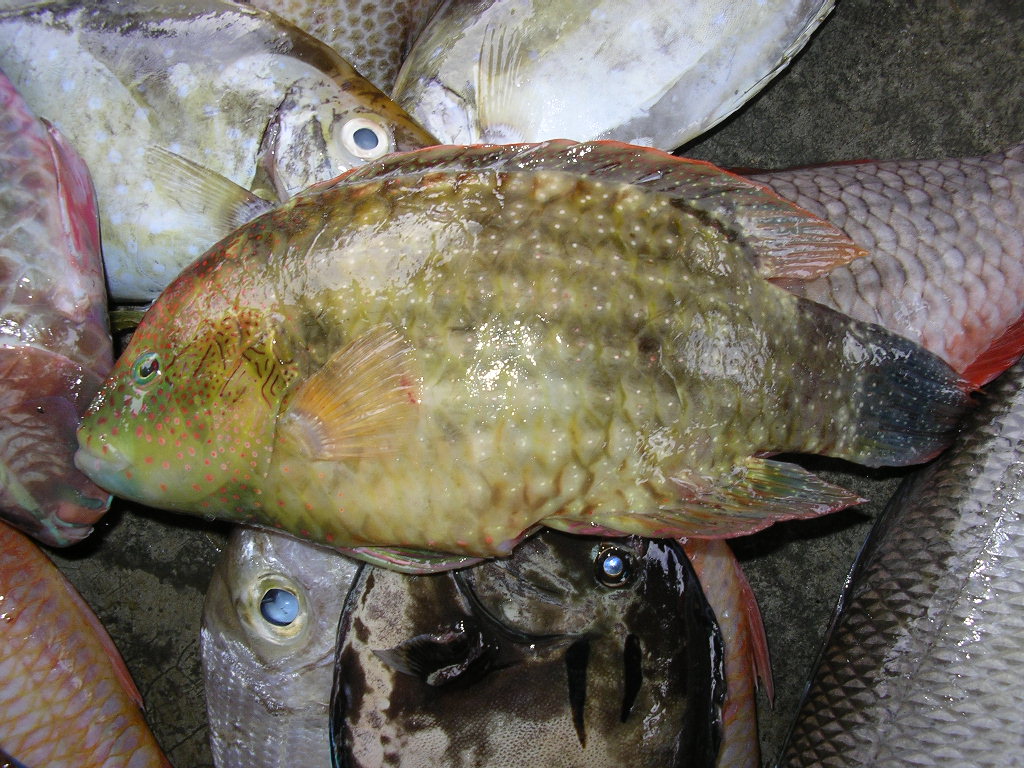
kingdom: Animalia
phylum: Chordata
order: Perciformes
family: Labridae
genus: Cheilinus
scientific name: Cheilinus trilobatus
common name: Tripletail maori wrasse
